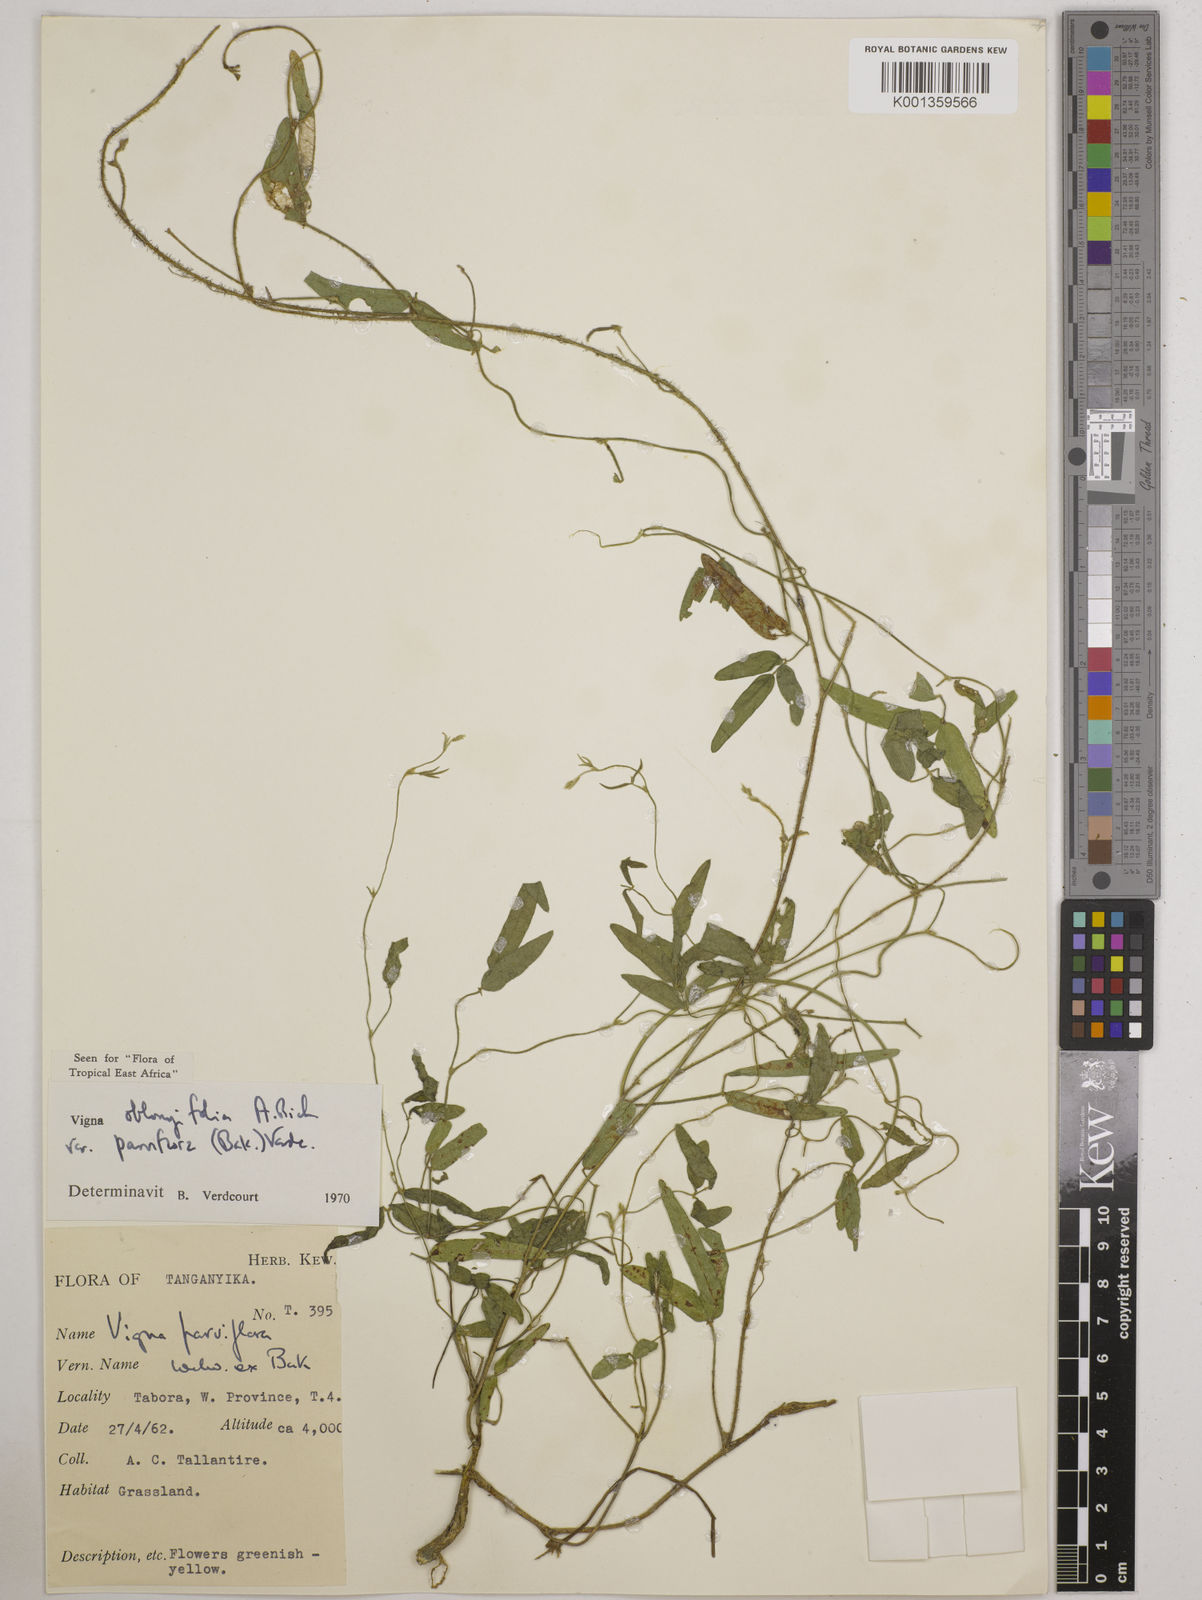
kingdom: Plantae
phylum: Tracheophyta
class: Magnoliopsida
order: Fabales
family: Fabaceae
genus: Vigna
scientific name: Vigna
